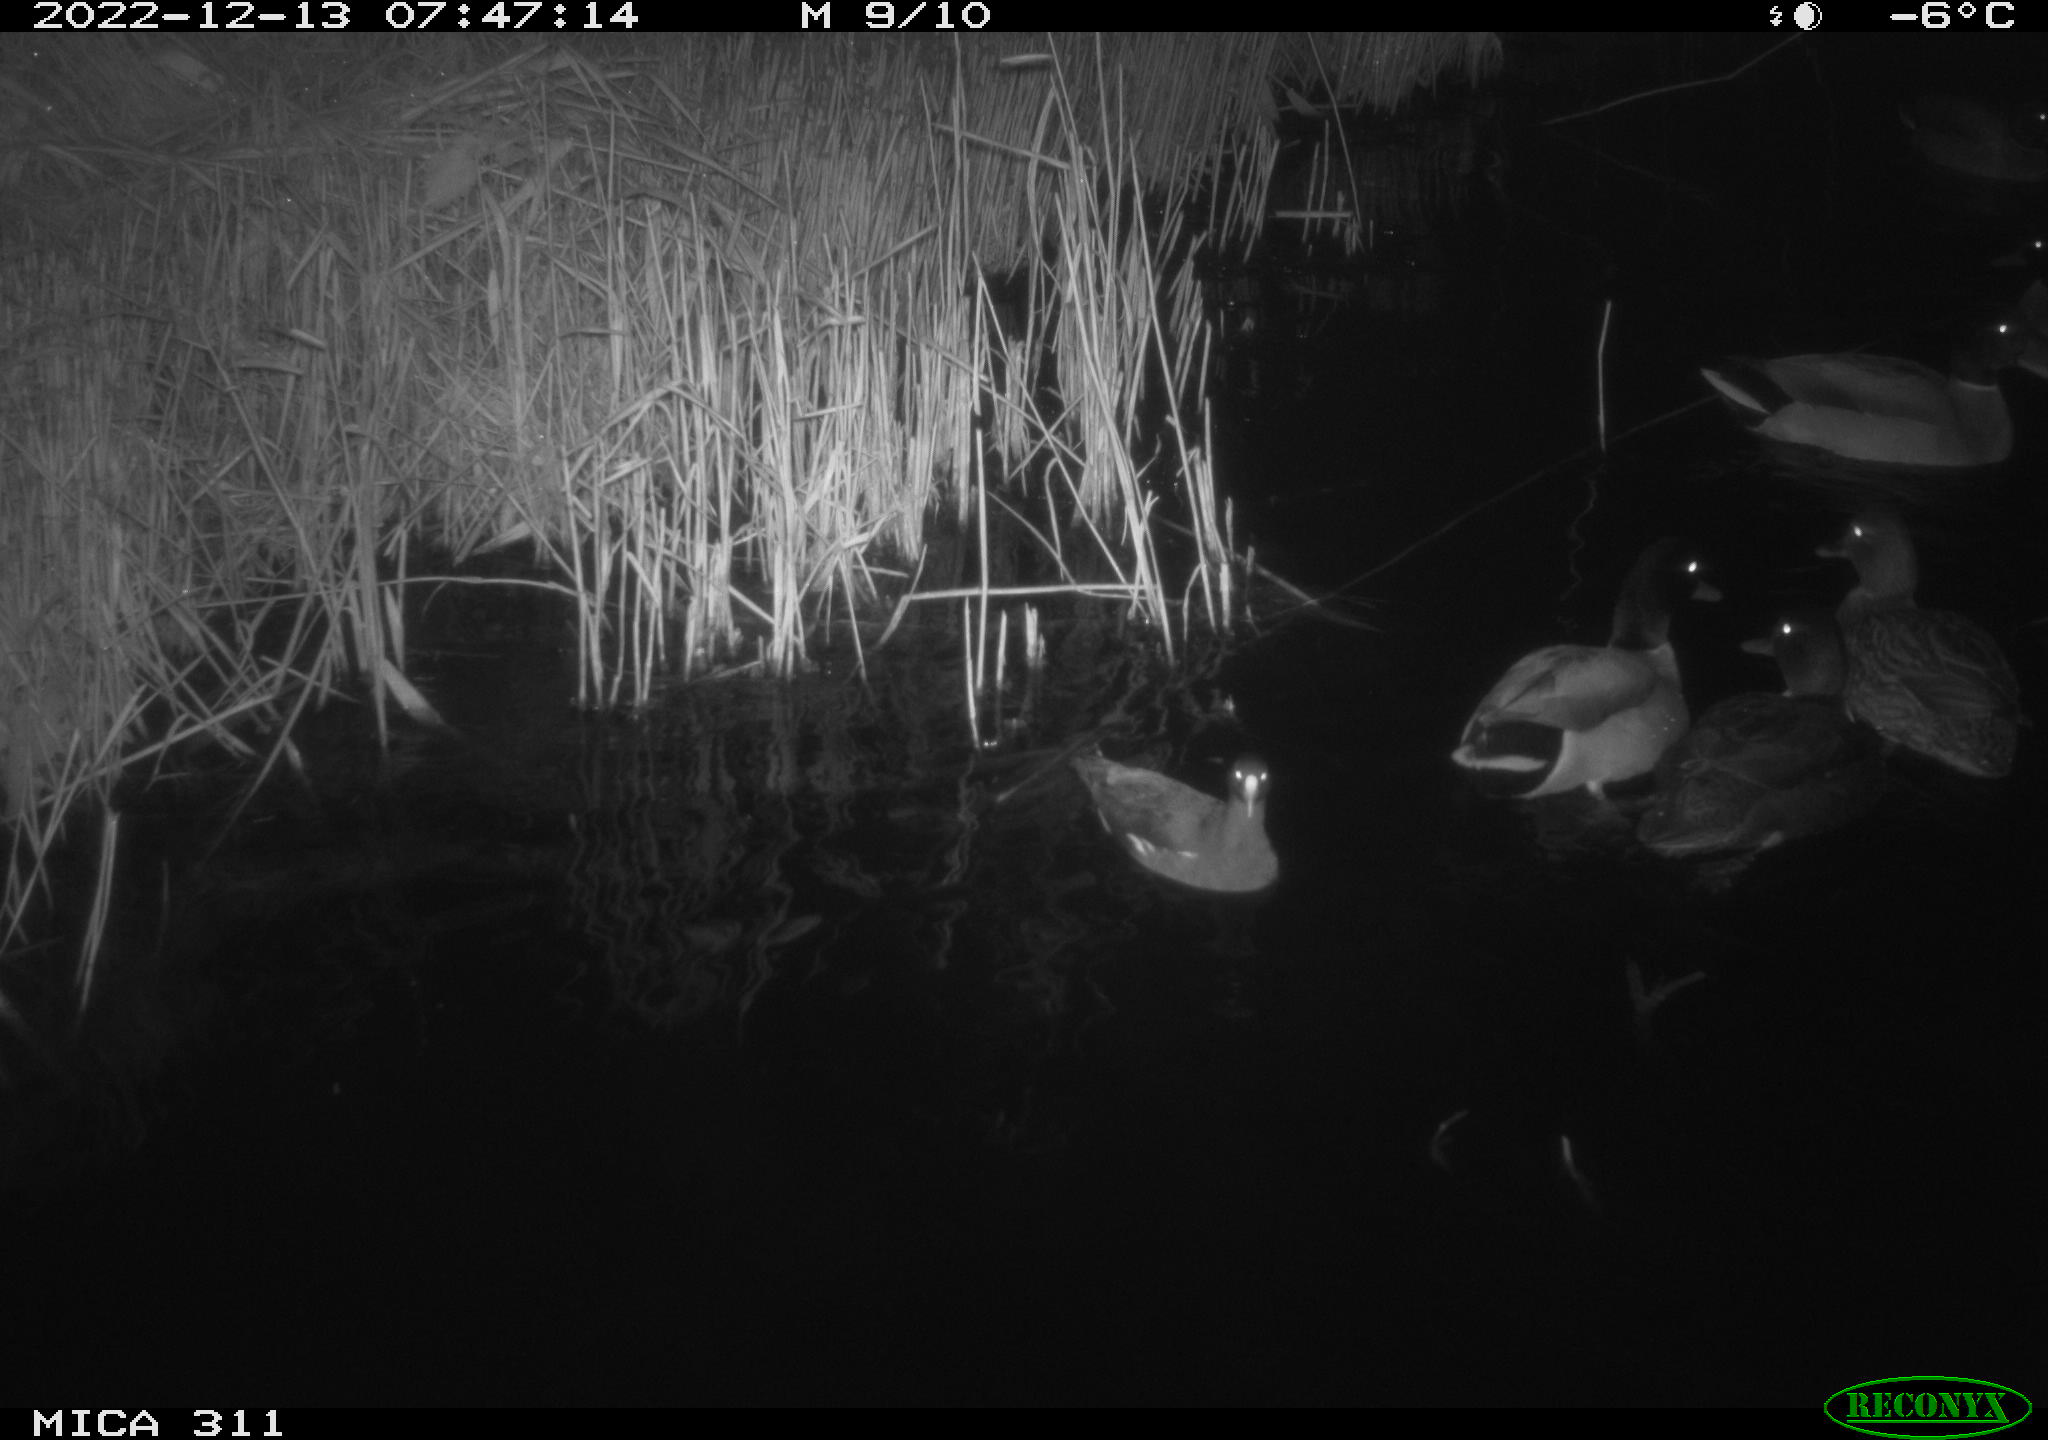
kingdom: Animalia
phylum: Chordata
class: Aves
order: Gruiformes
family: Rallidae
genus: Gallinula
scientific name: Gallinula chloropus
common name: Common moorhen
